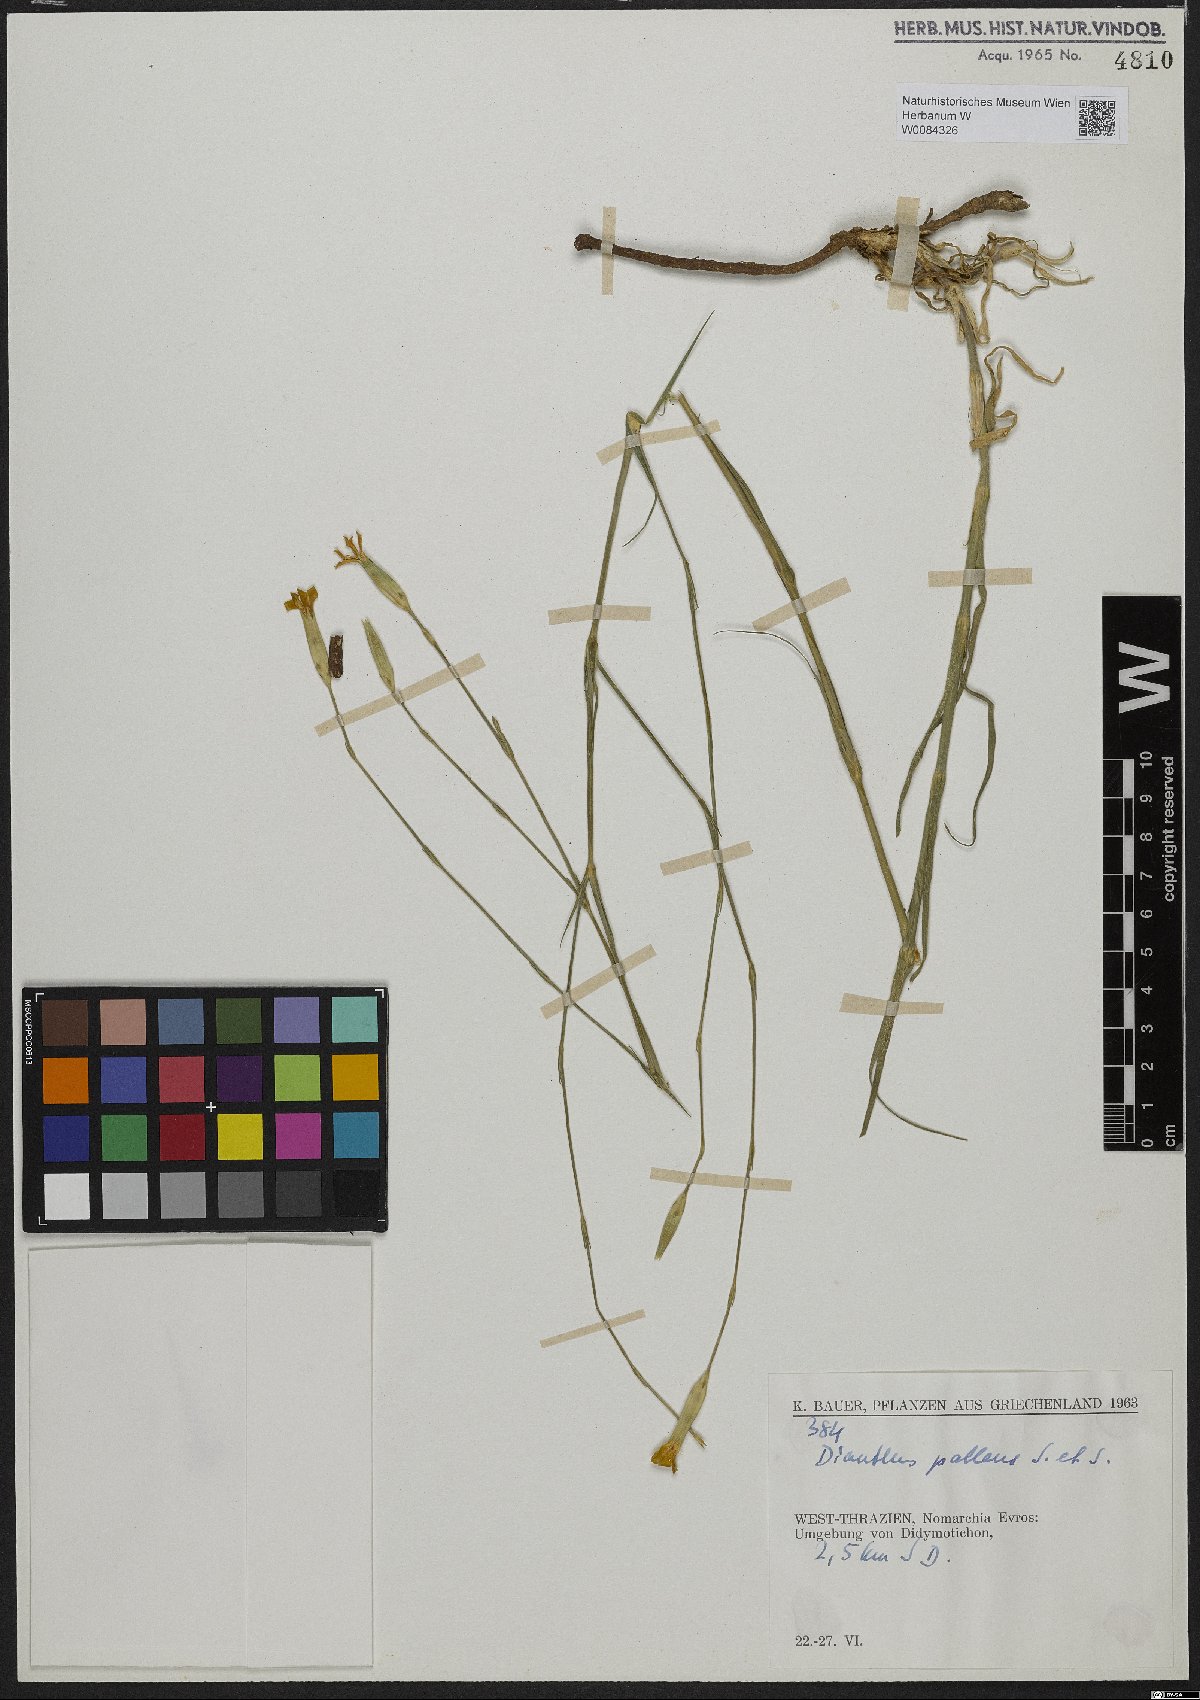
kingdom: Plantae
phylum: Tracheophyta
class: Magnoliopsida
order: Caryophyllales
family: Caryophyllaceae
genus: Dianthus
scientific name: Dianthus monadelphus
